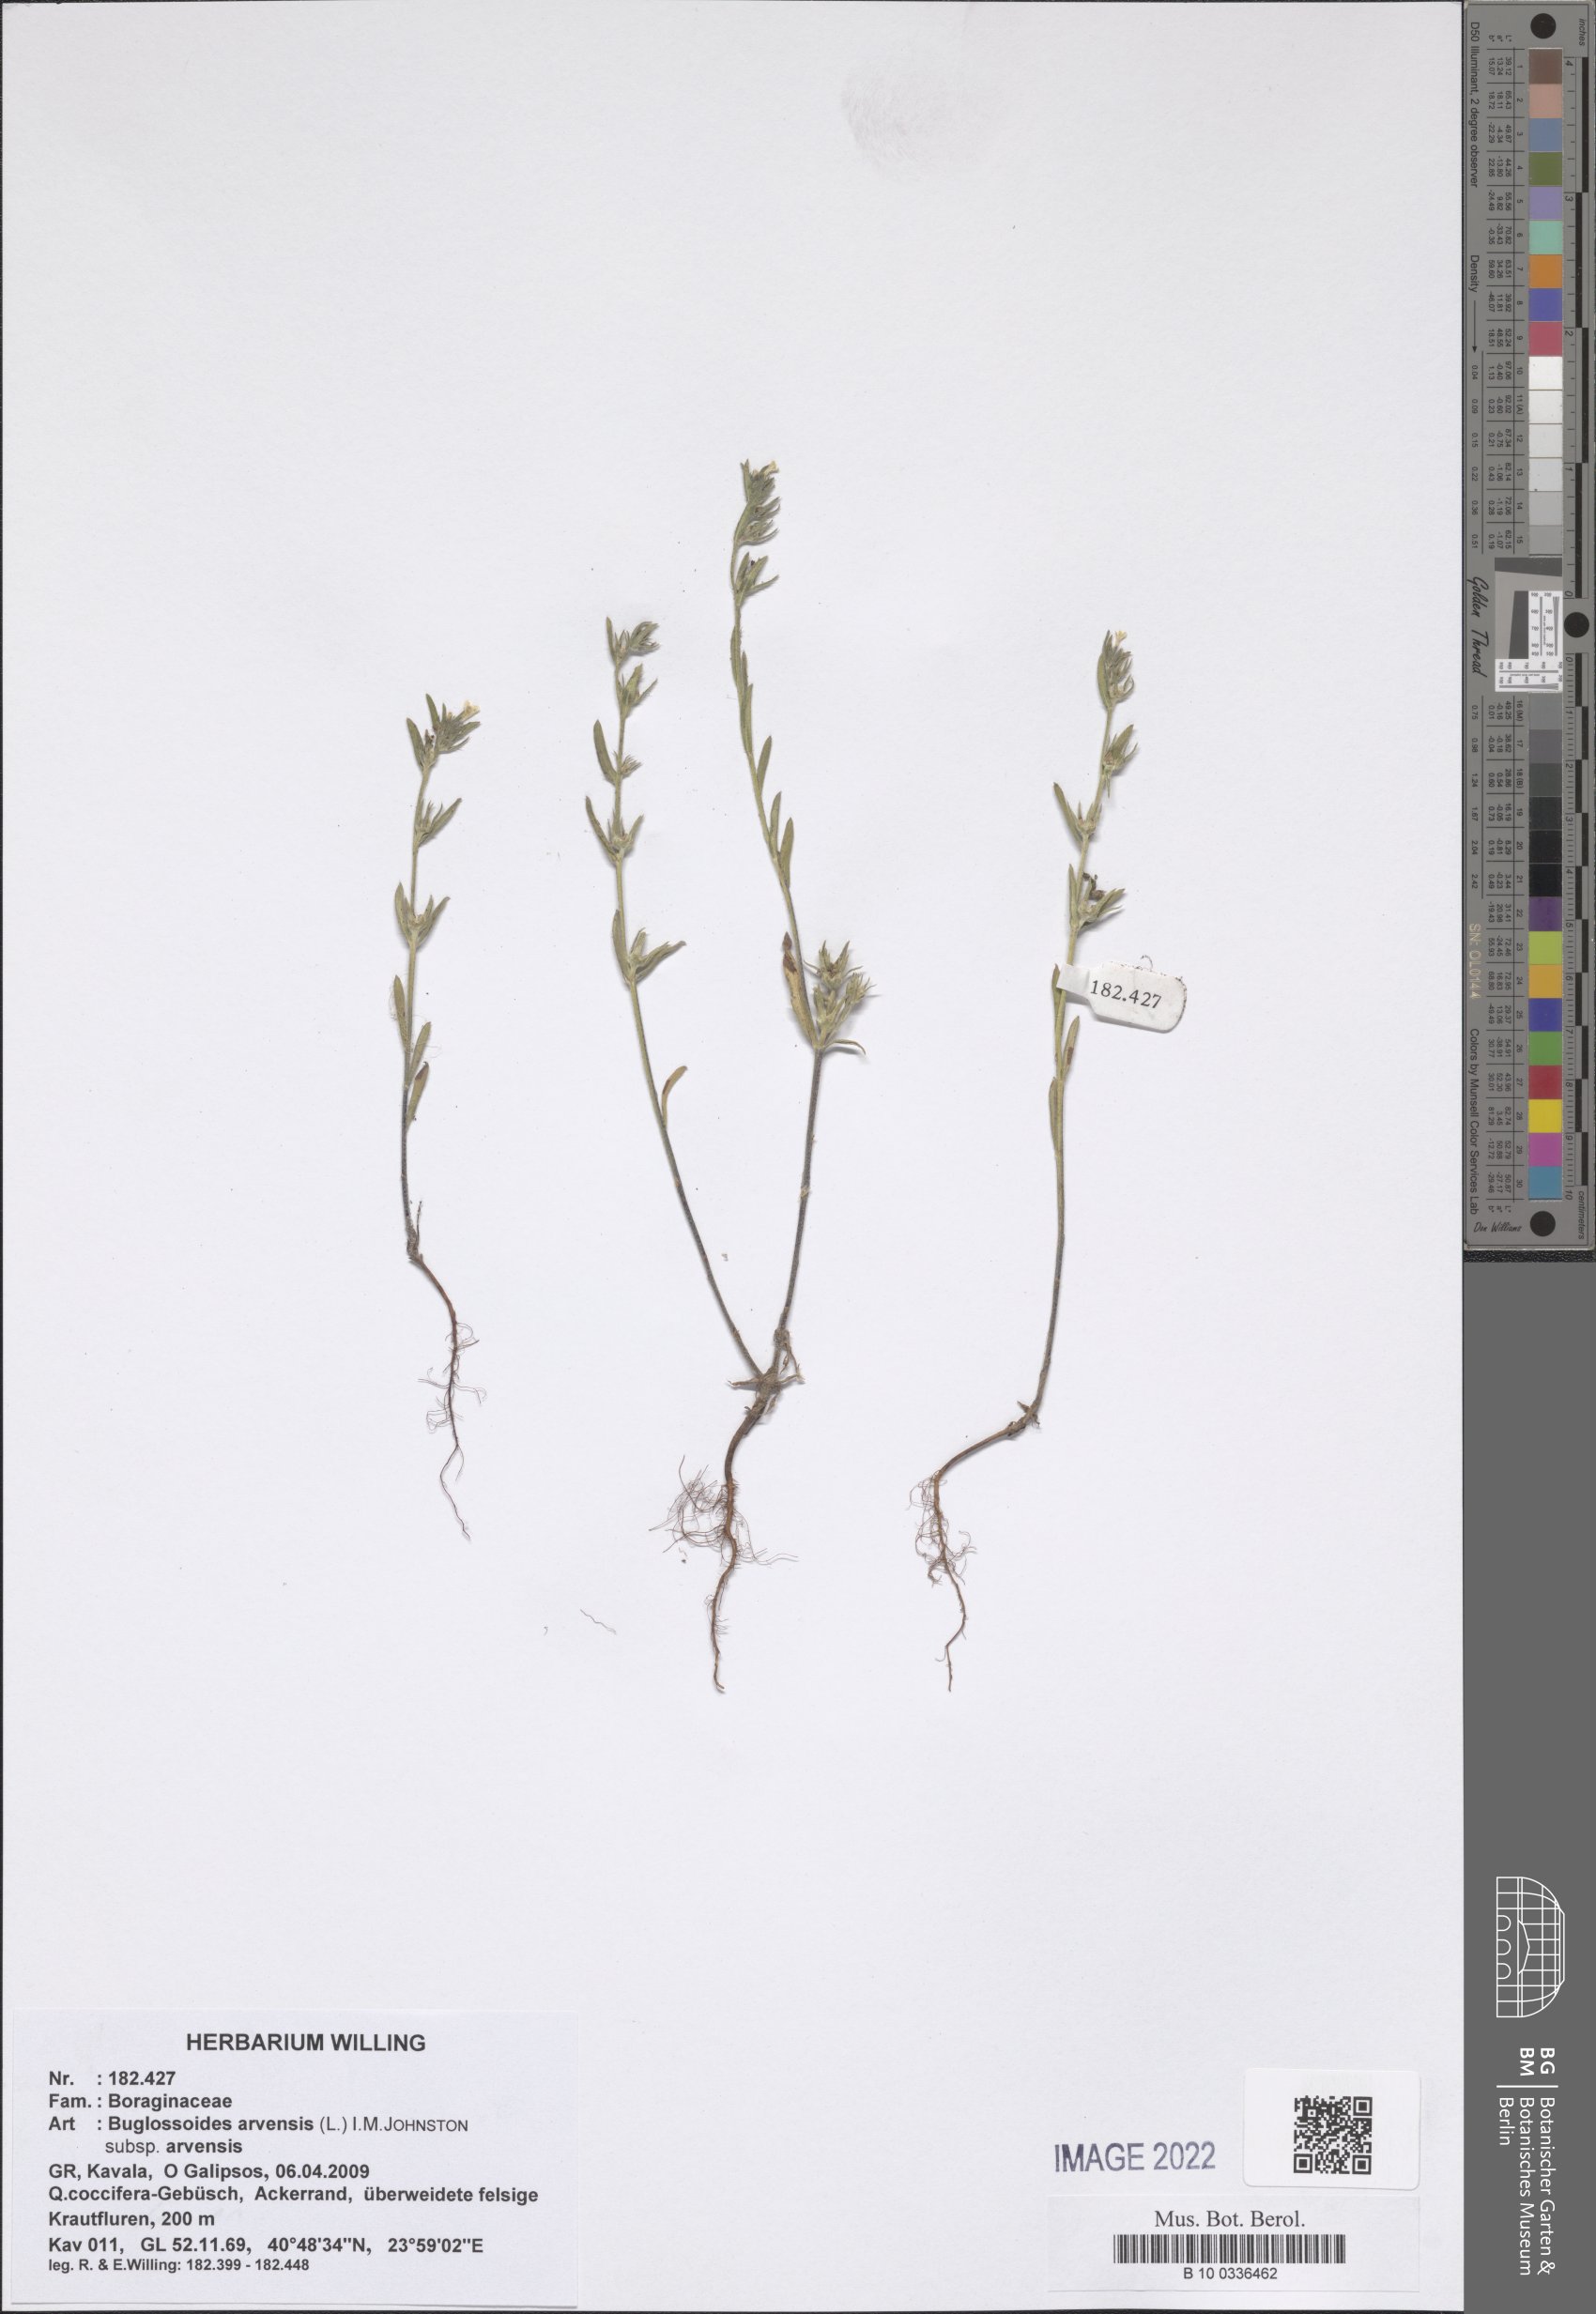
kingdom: Plantae
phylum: Tracheophyta
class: Magnoliopsida
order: Boraginales
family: Boraginaceae
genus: Buglossoides
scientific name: Buglossoides arvensis
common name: Corn gromwell
